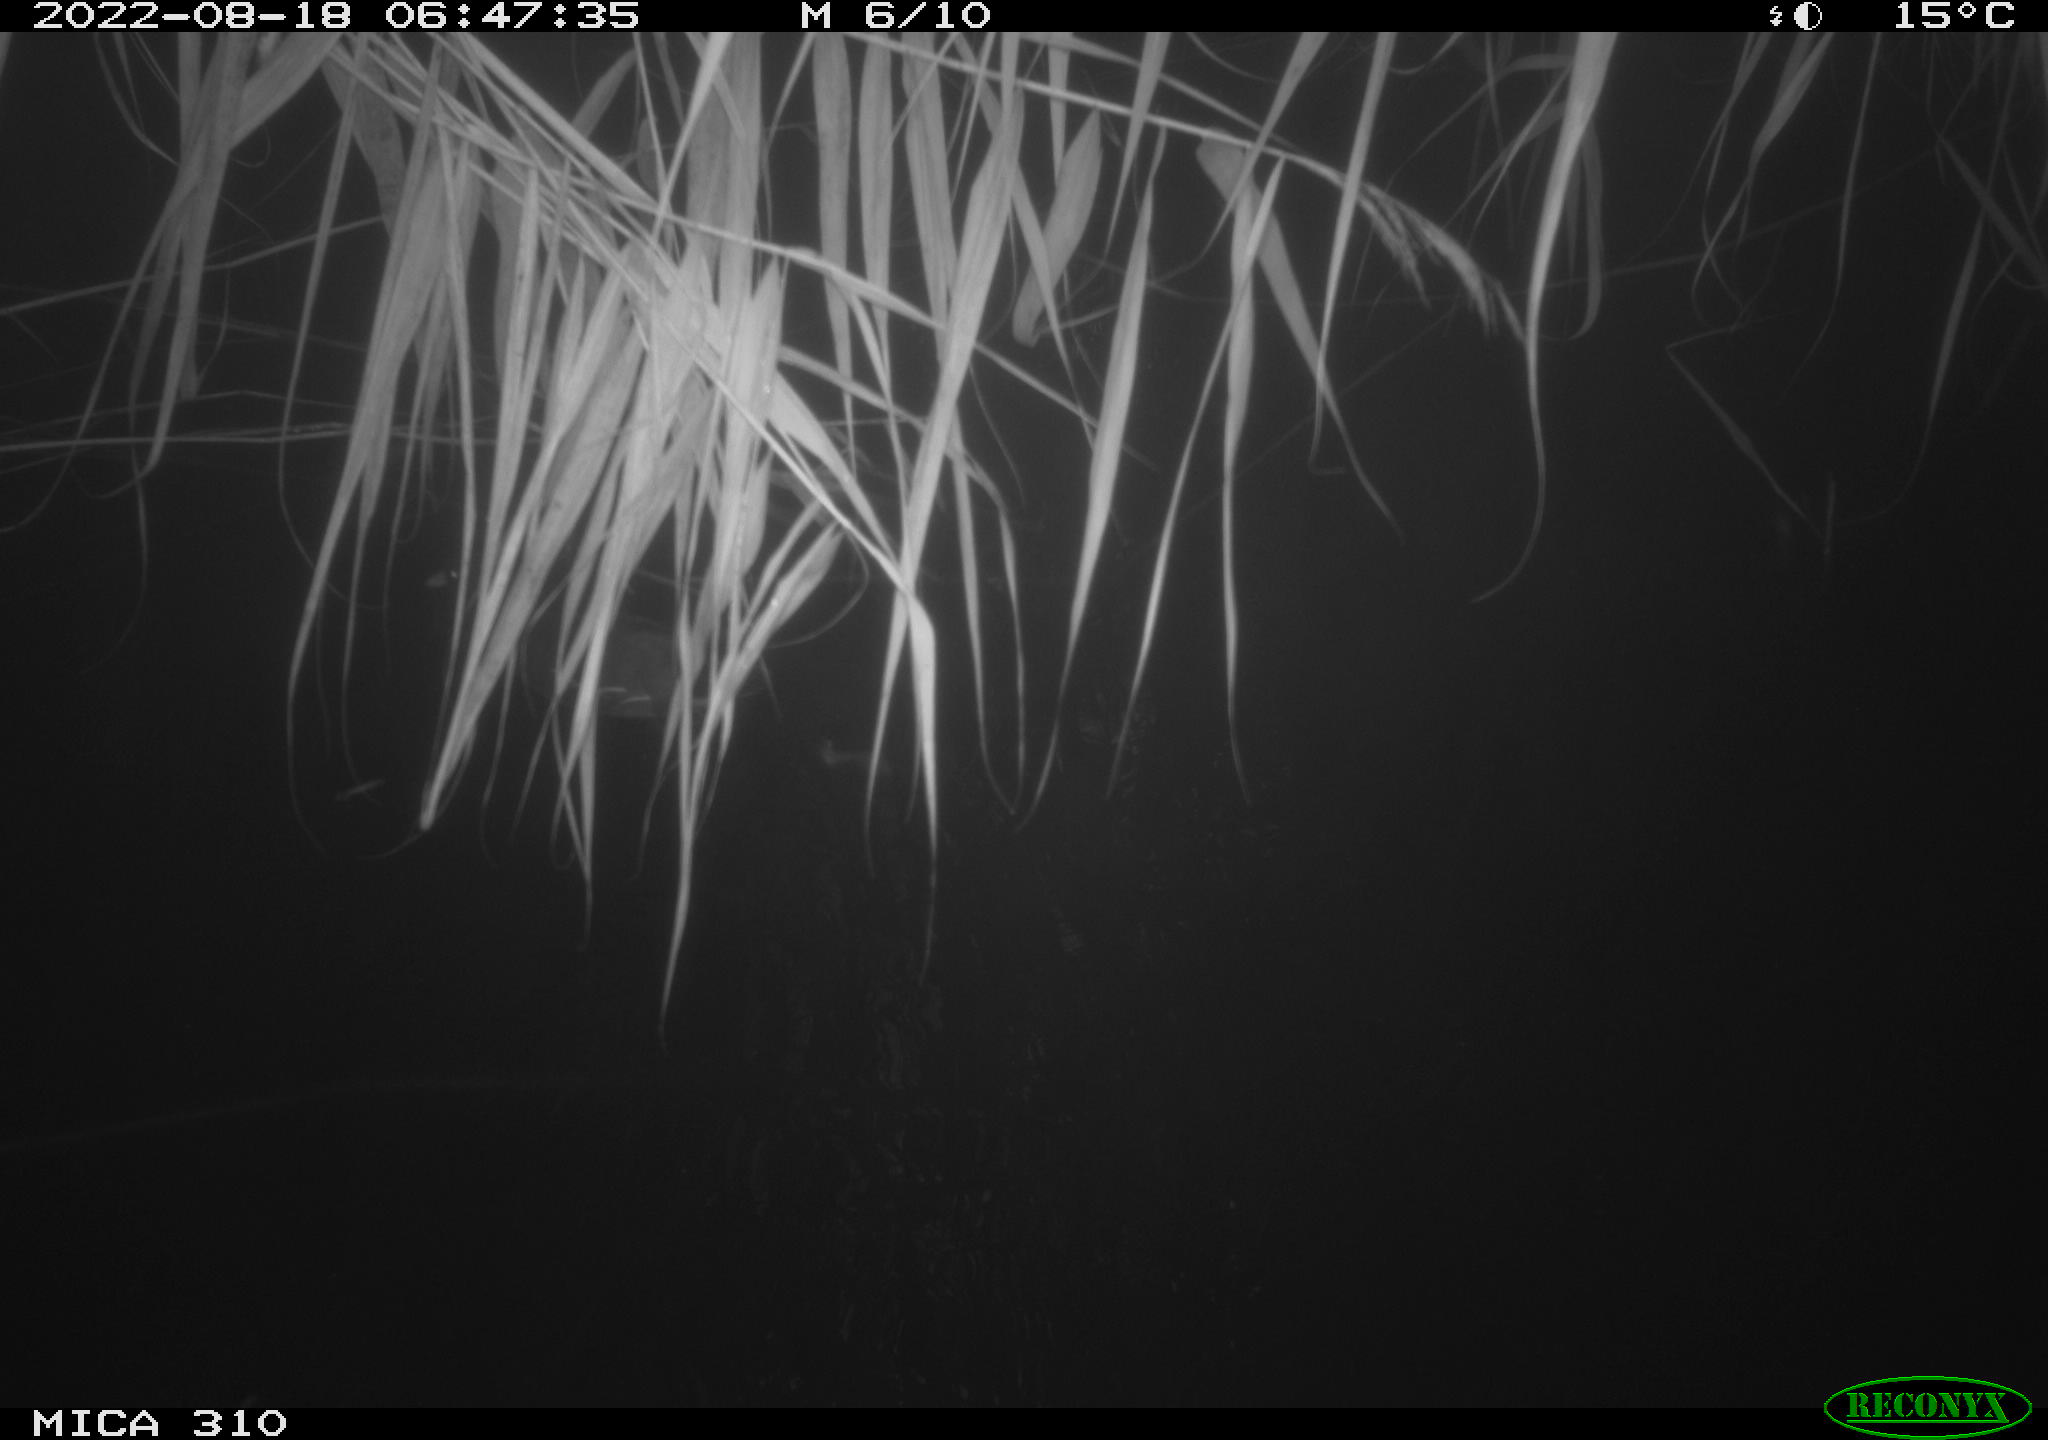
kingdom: Animalia
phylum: Chordata
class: Aves
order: Gruiformes
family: Rallidae
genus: Gallinula
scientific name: Gallinula chloropus
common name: Common moorhen
